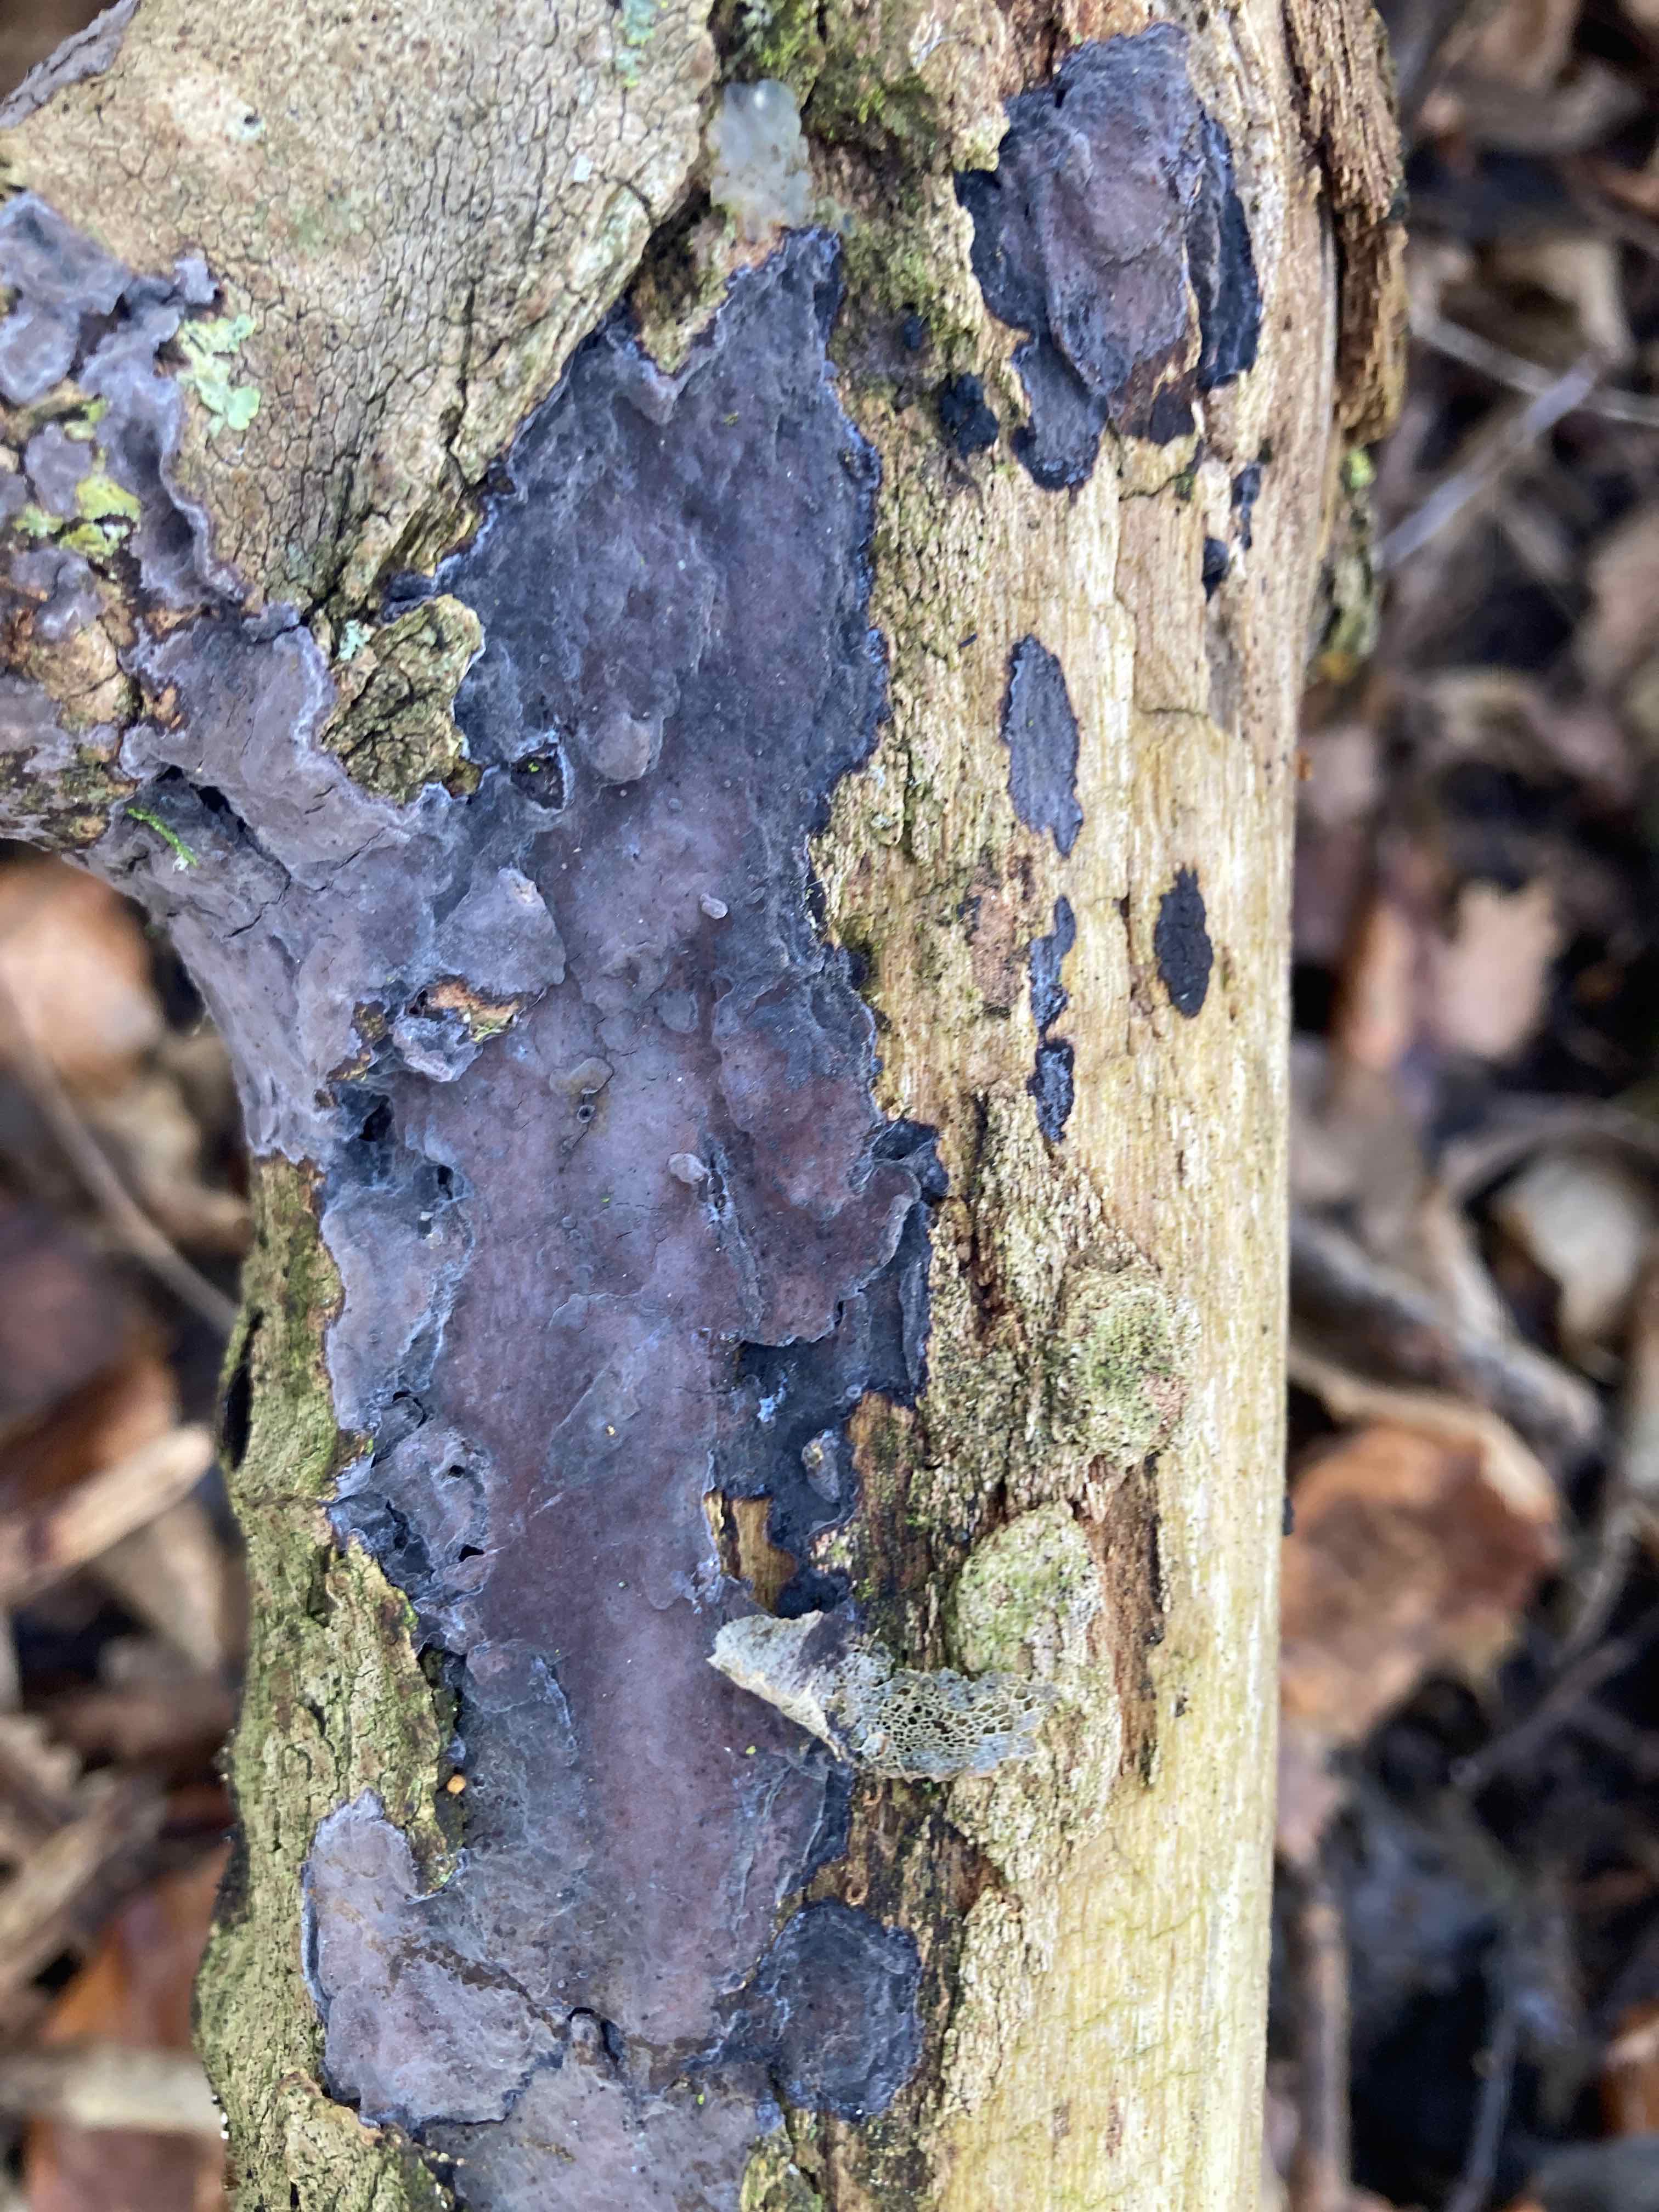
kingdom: Fungi
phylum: Basidiomycota
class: Agaricomycetes
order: Russulales
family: Peniophoraceae
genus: Peniophora
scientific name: Peniophora limitata
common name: mørkrandet voksskind
